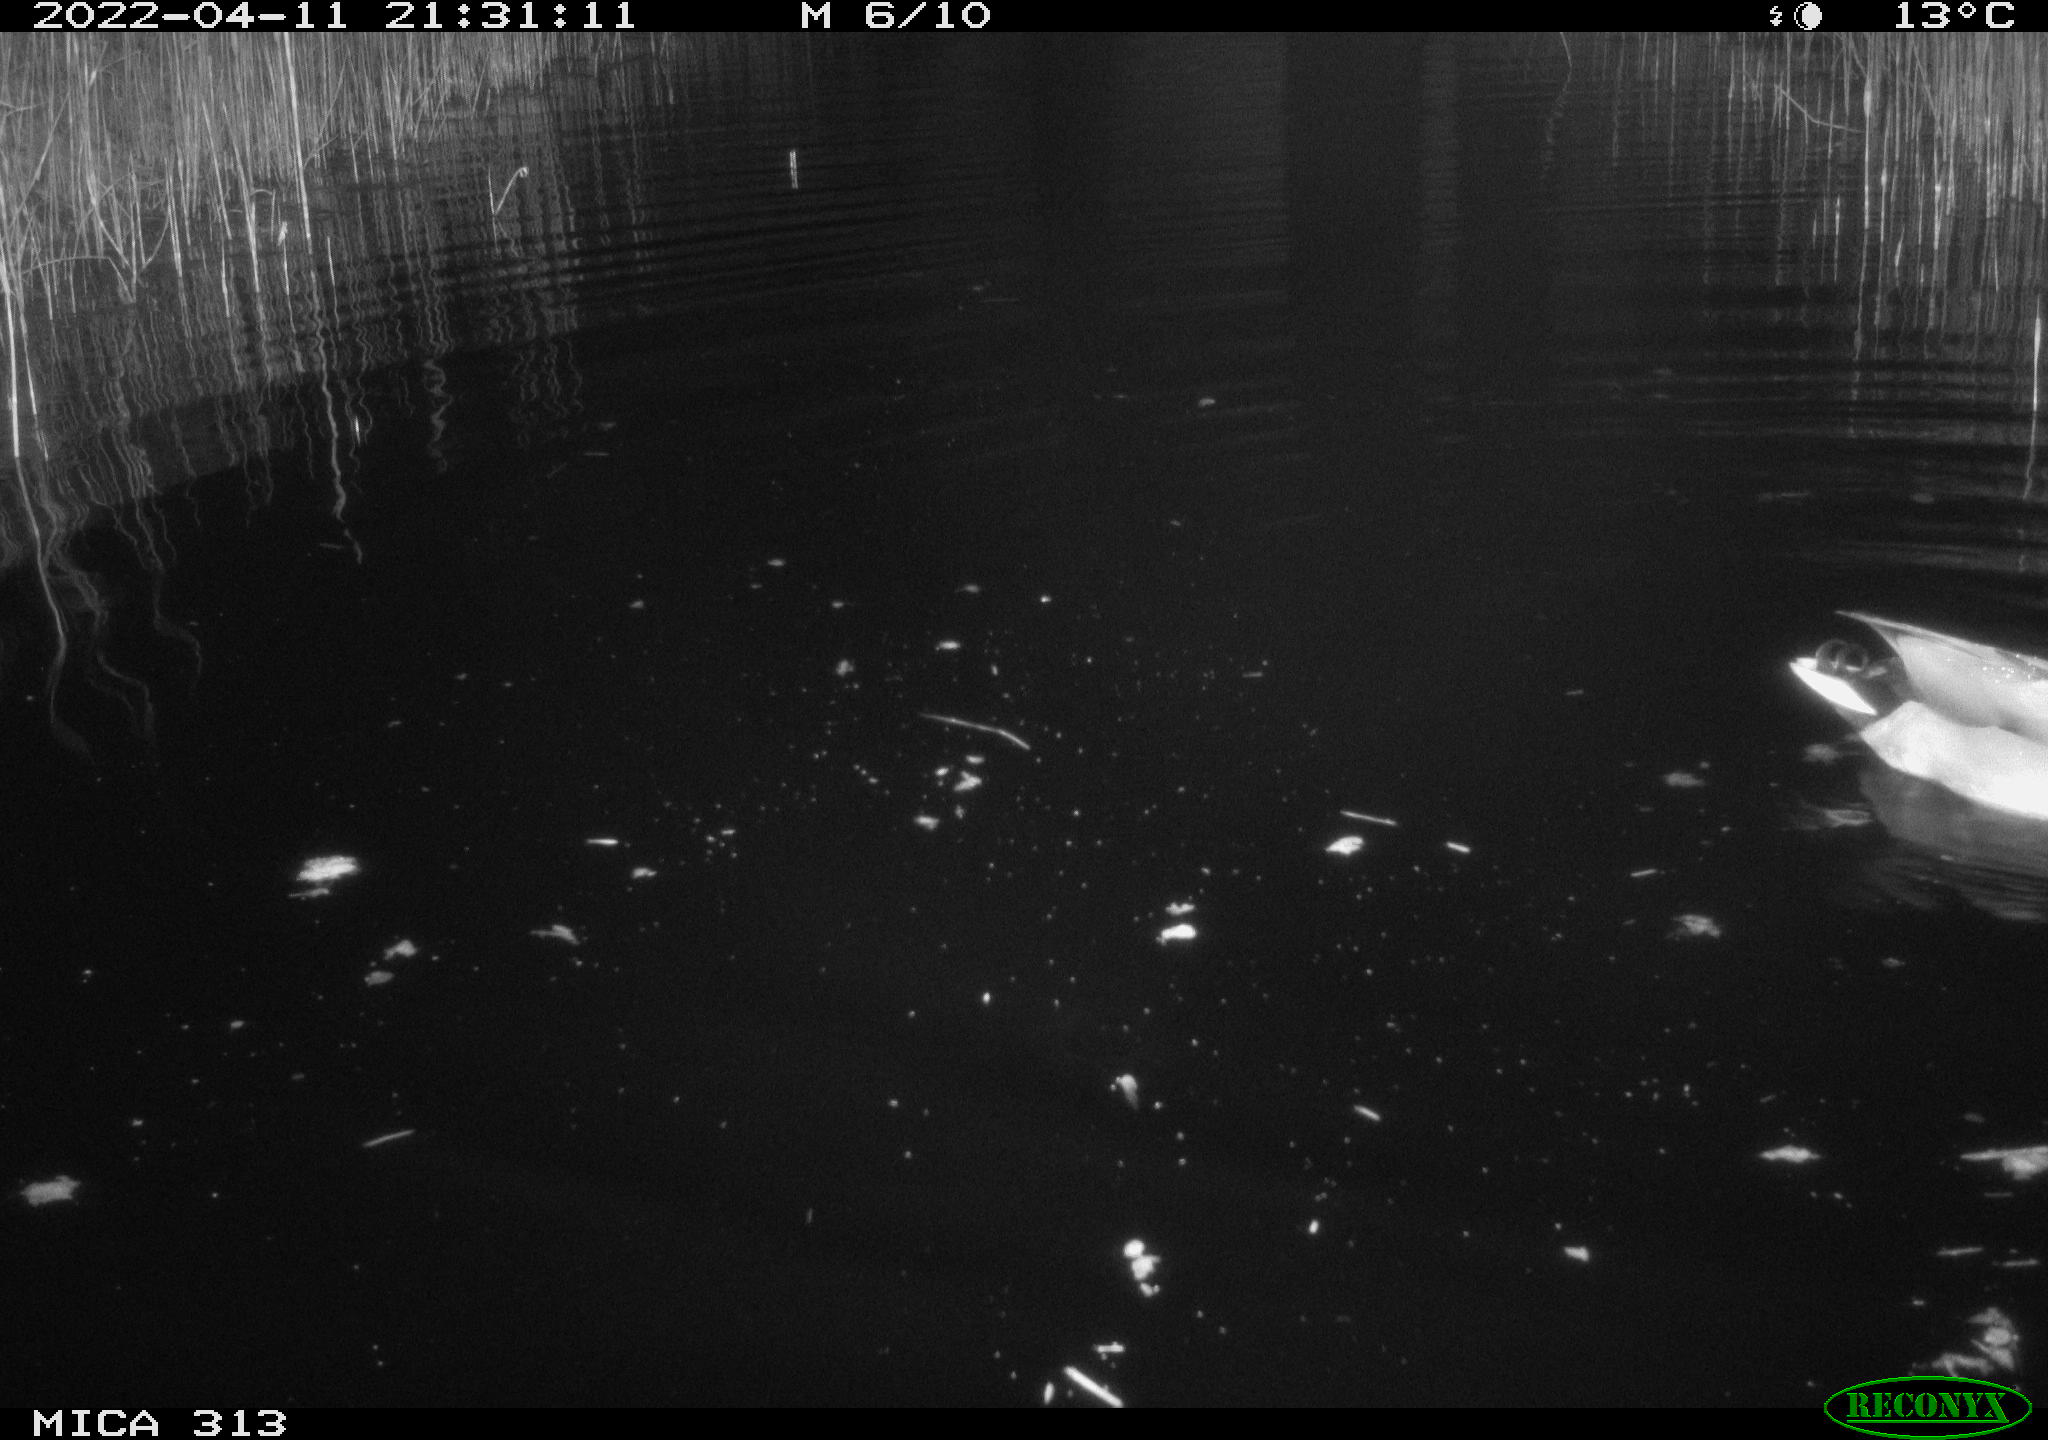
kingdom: Animalia
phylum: Chordata
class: Aves
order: Anseriformes
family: Anatidae
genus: Anas
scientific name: Anas platyrhynchos
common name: Mallard
